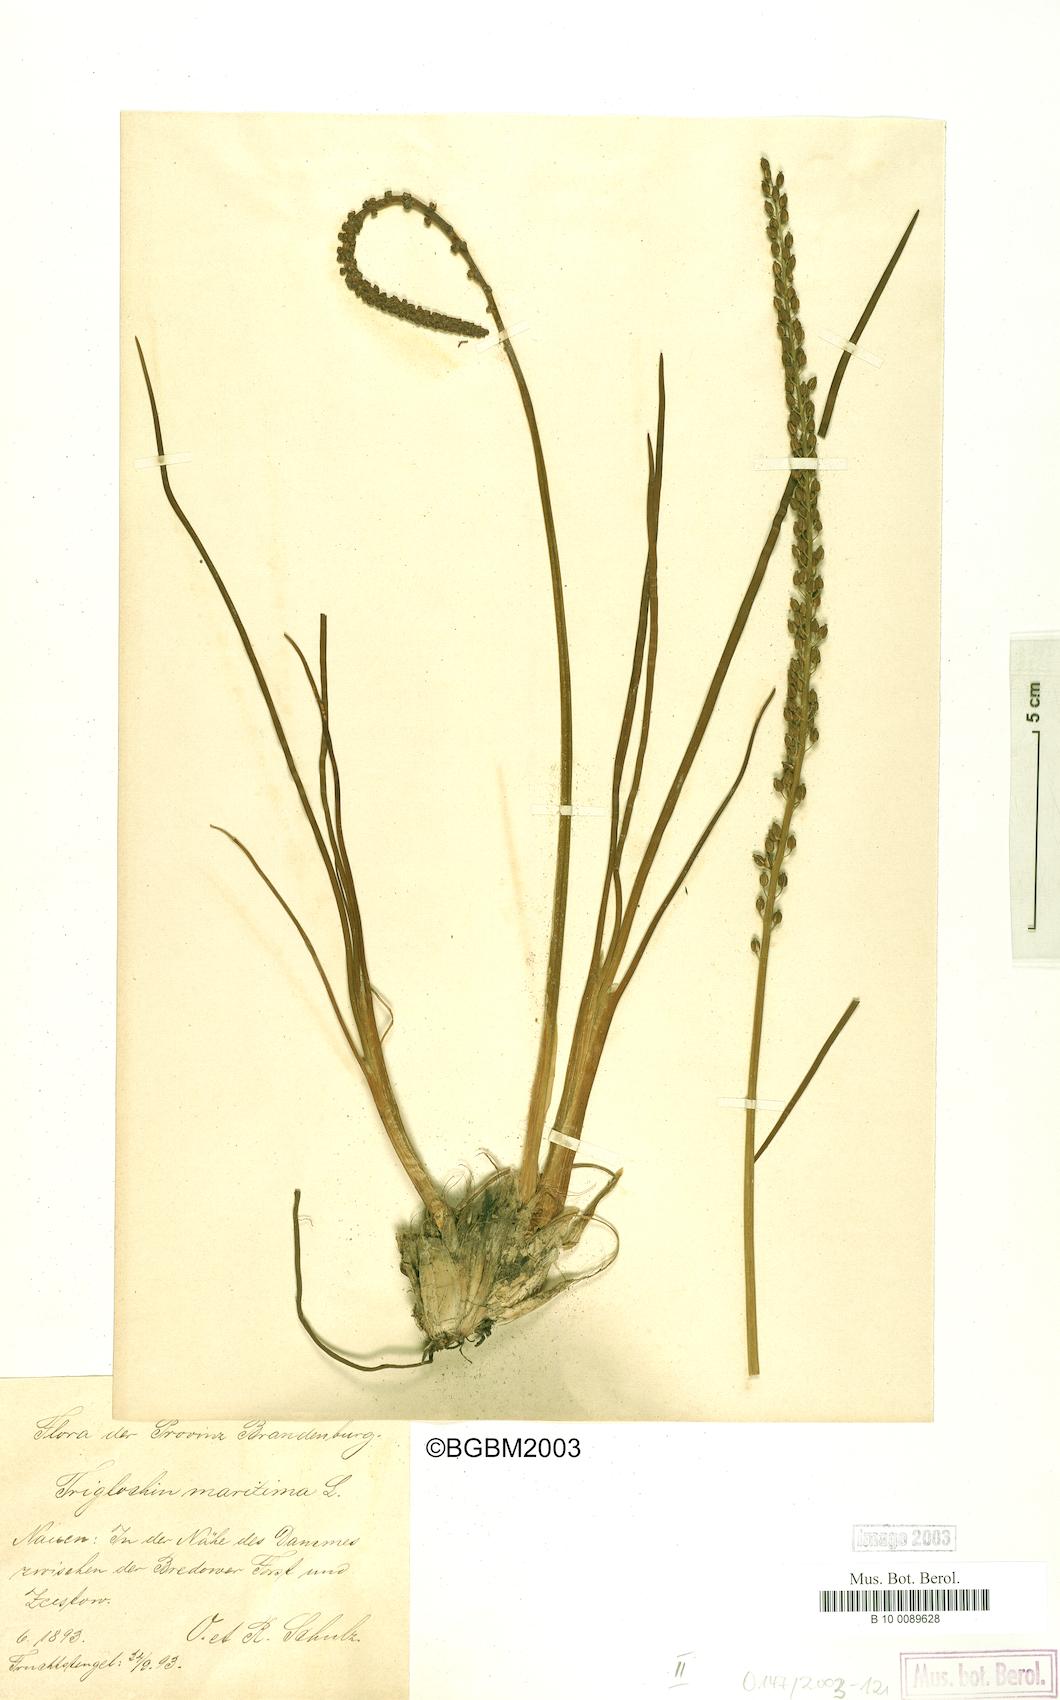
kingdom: Plantae
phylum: Tracheophyta
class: Liliopsida
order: Alismatales
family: Juncaginaceae
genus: Triglochin
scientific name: Triglochin maritima
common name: Sea arrowgrass
